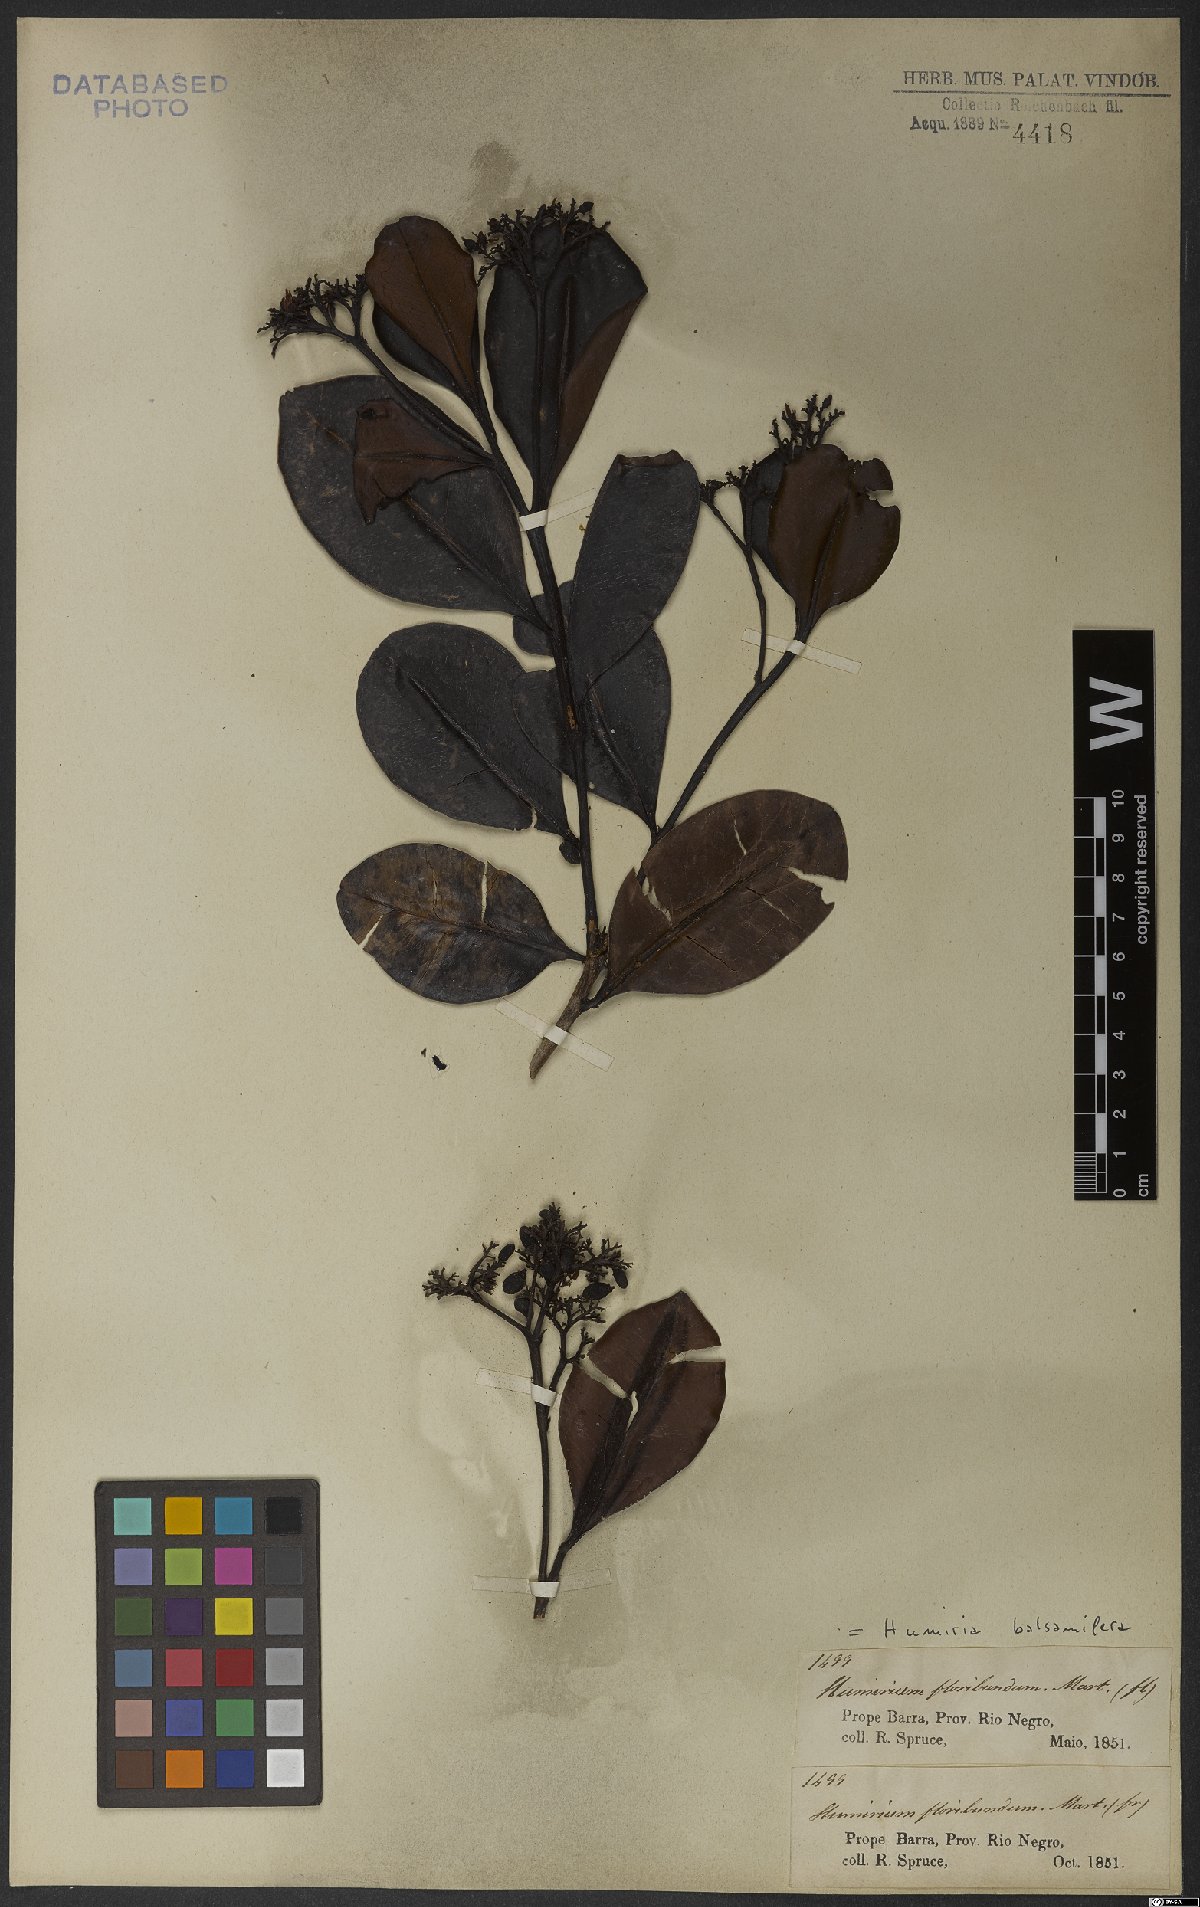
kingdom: Plantae
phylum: Tracheophyta
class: Magnoliopsida
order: Malpighiales
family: Humiriaceae
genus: Humiria
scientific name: Humiria balsamifera
